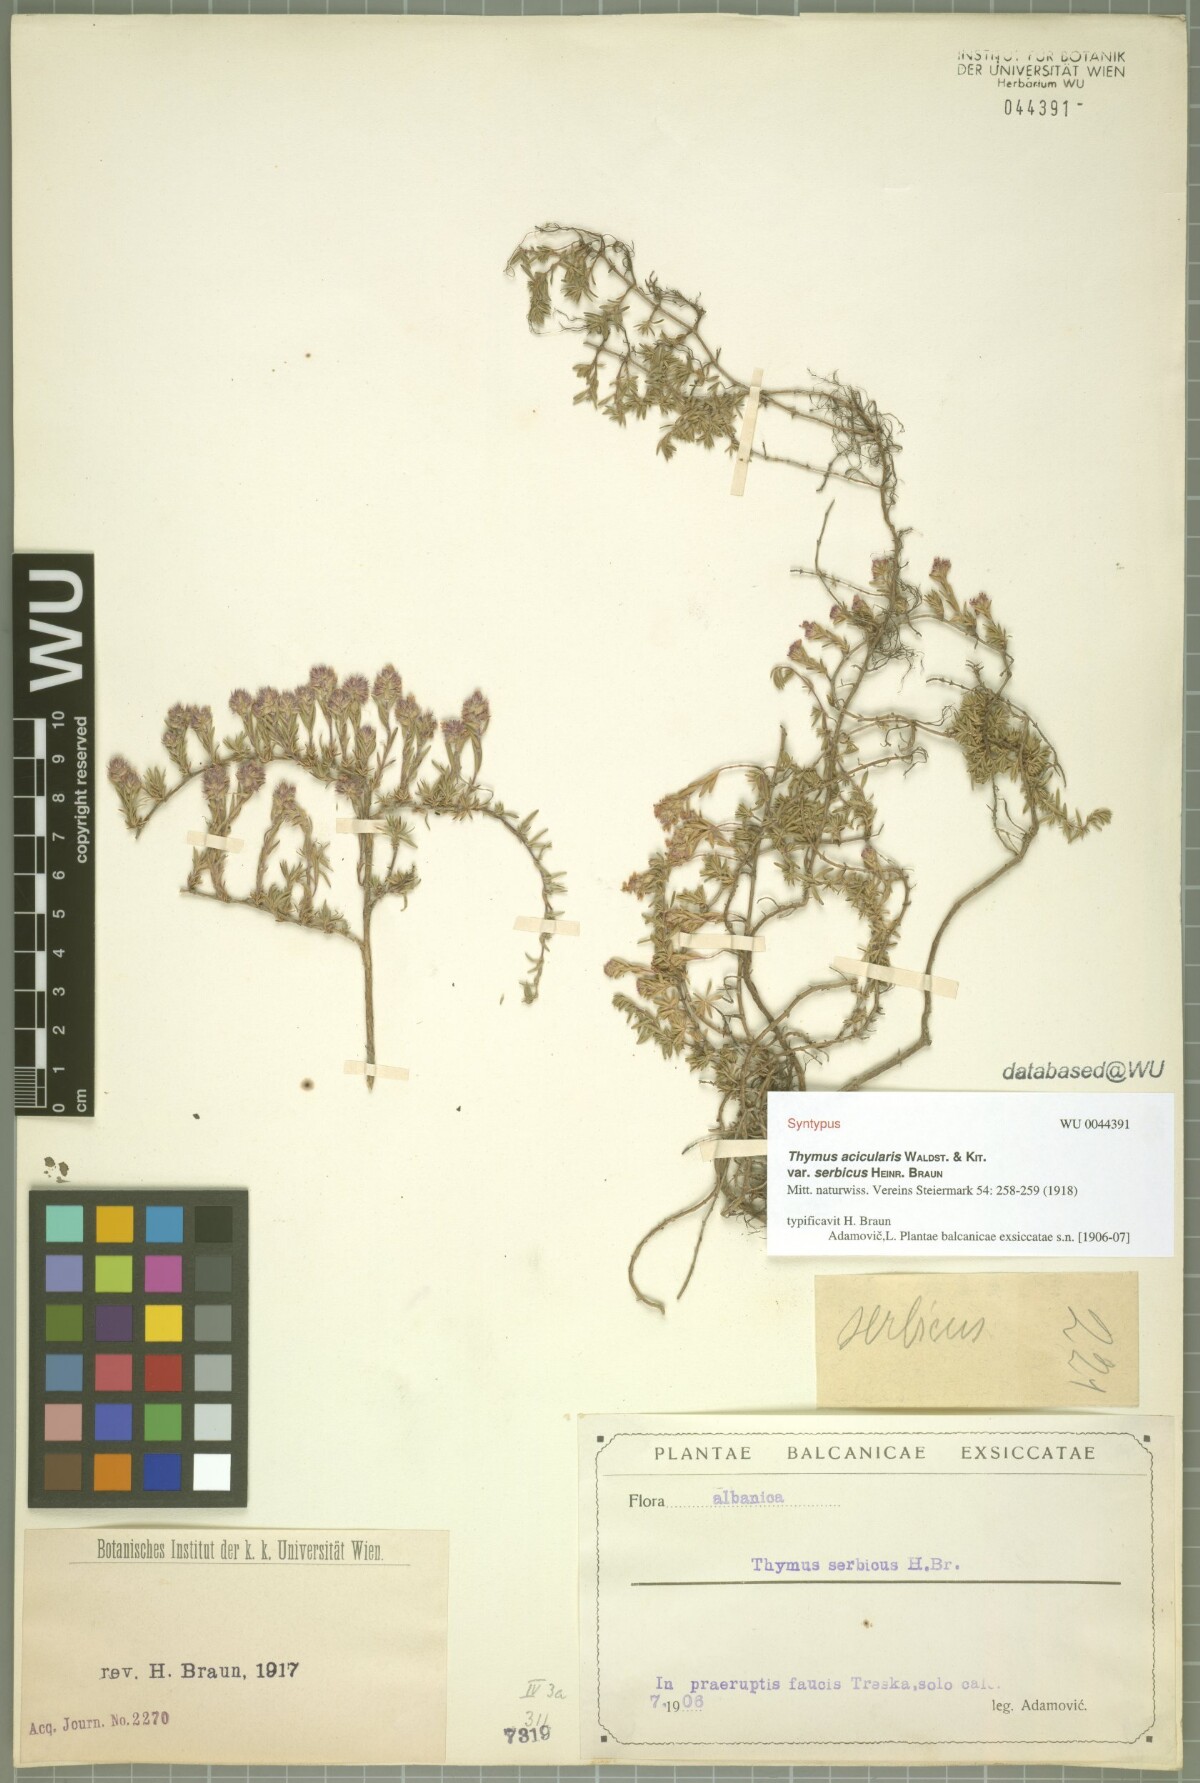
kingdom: Plantae
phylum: Tracheophyta
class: Magnoliopsida
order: Lamiales
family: Lamiaceae
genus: Thymus
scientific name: Thymus
